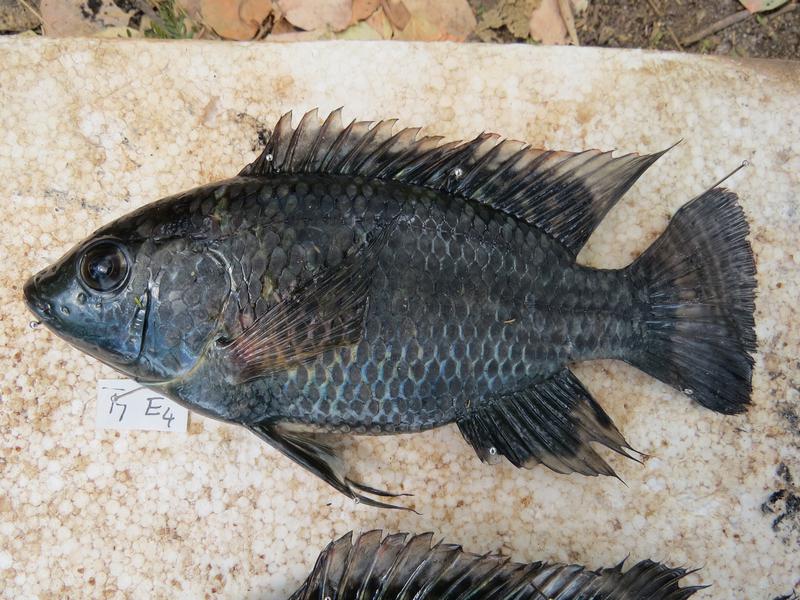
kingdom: Animalia
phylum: Chordata
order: Perciformes
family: Cichlidae
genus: Oreochromis
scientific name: Oreochromis urolepis
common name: Wami tilapia
